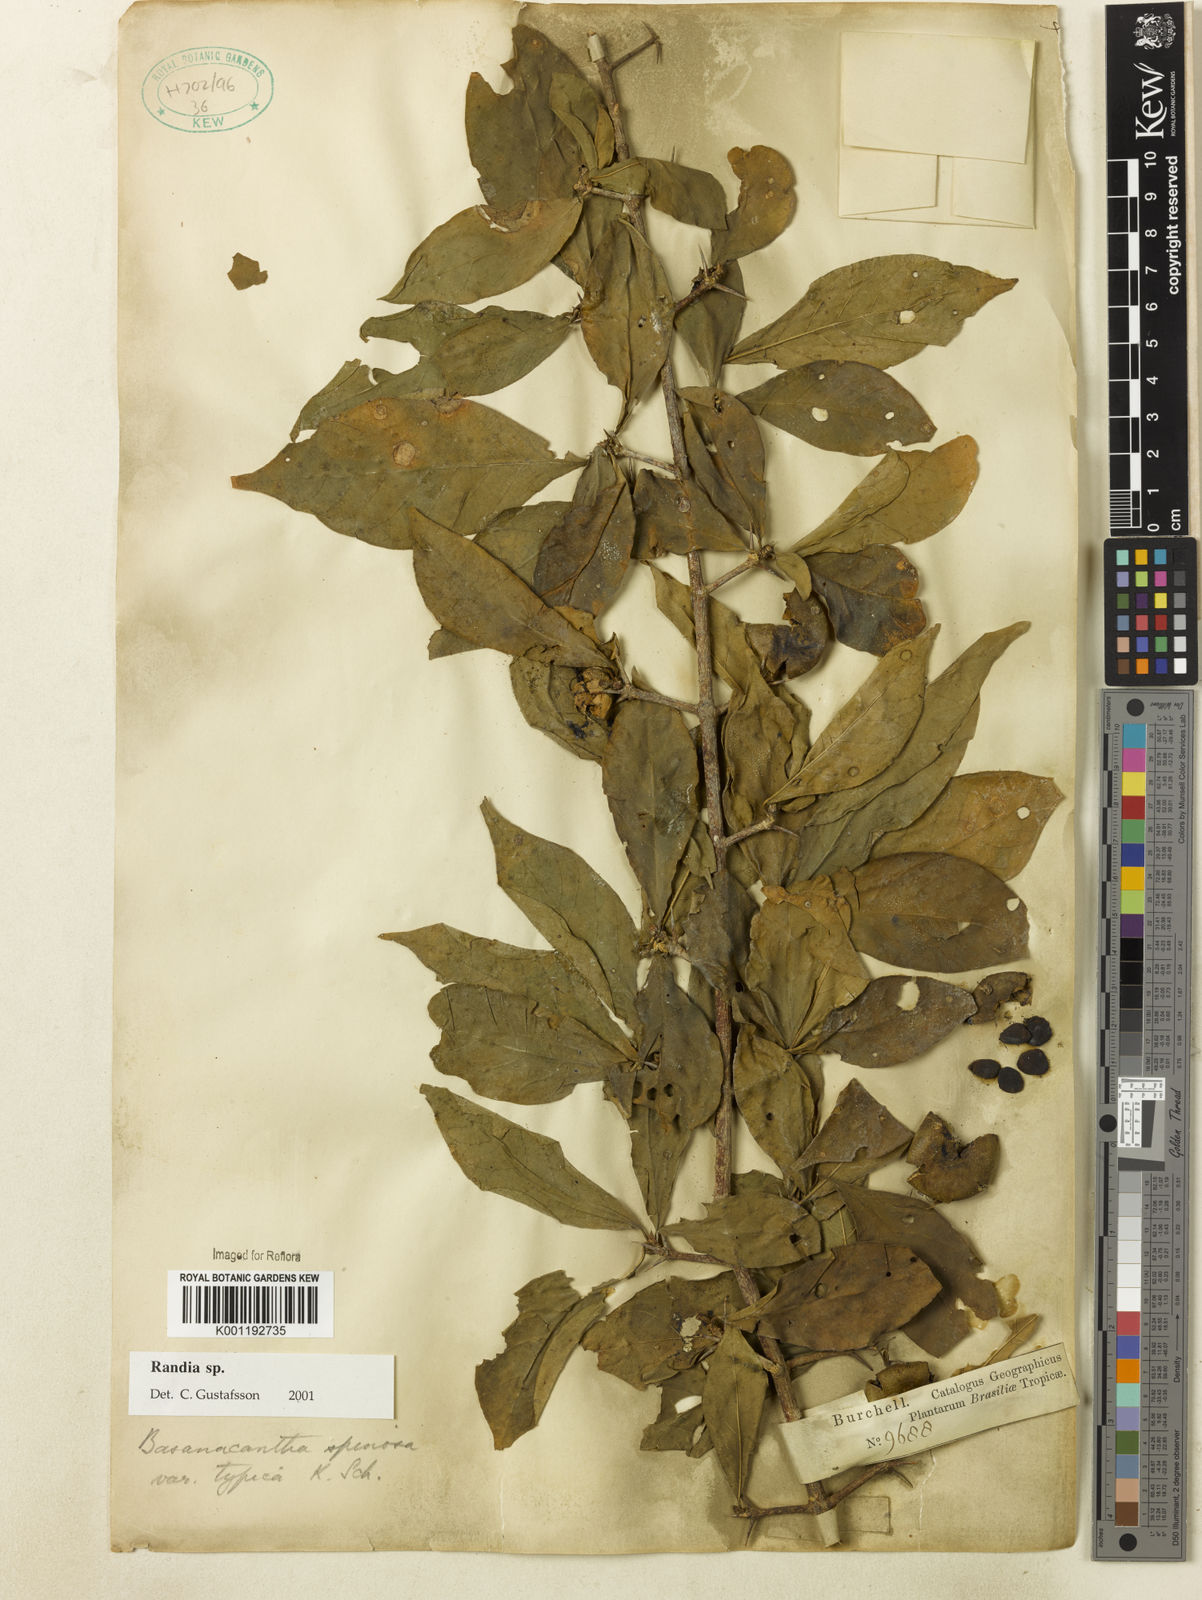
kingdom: Plantae
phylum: Tracheophyta
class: Magnoliopsida
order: Gentianales
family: Rubiaceae
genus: Randia
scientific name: Randia
